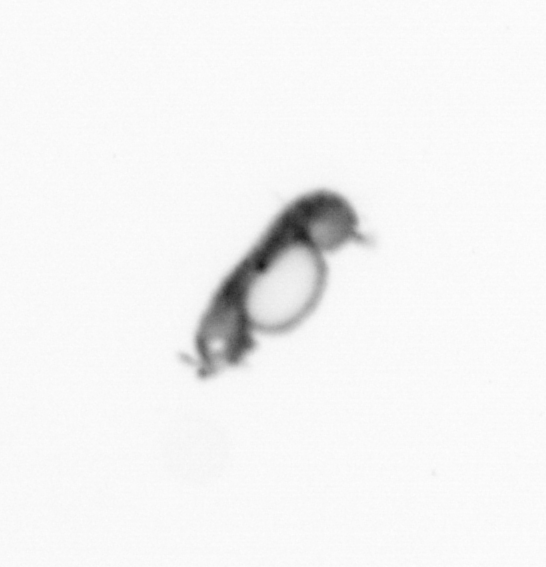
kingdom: Animalia
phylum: Annelida
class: Polychaeta
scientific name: Polychaeta
